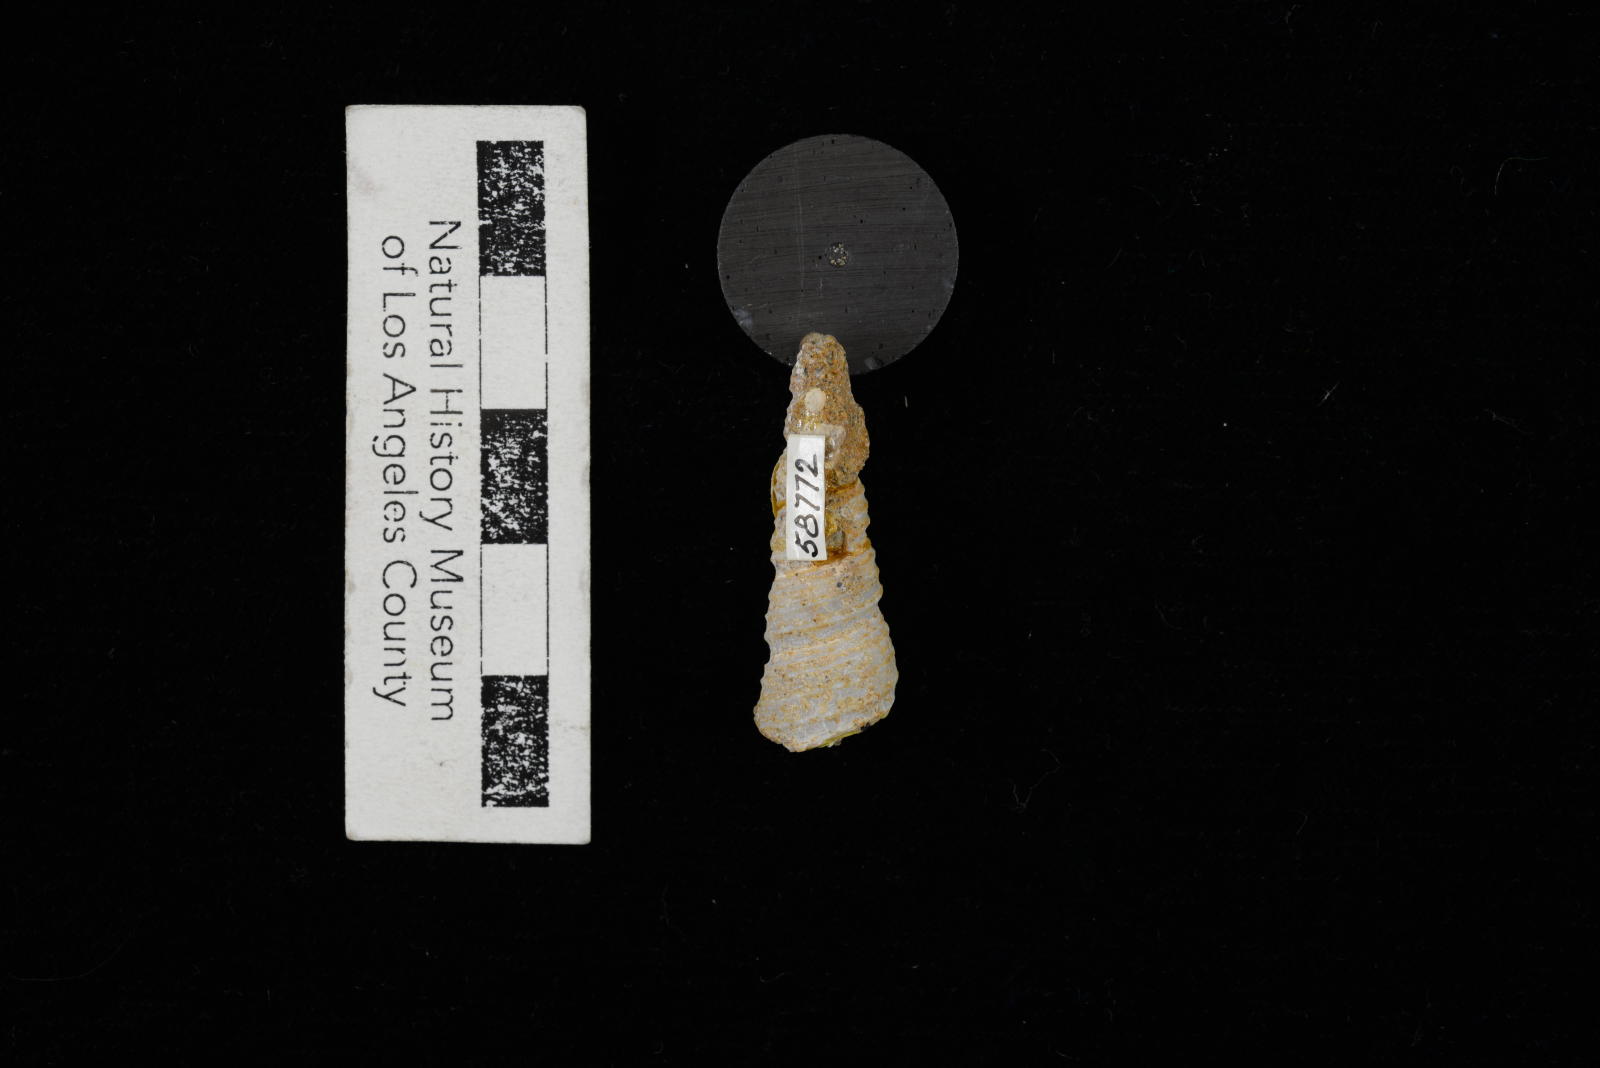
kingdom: Animalia
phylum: Mollusca
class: Gastropoda
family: Turritellidae
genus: Turritella
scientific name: Turritella
